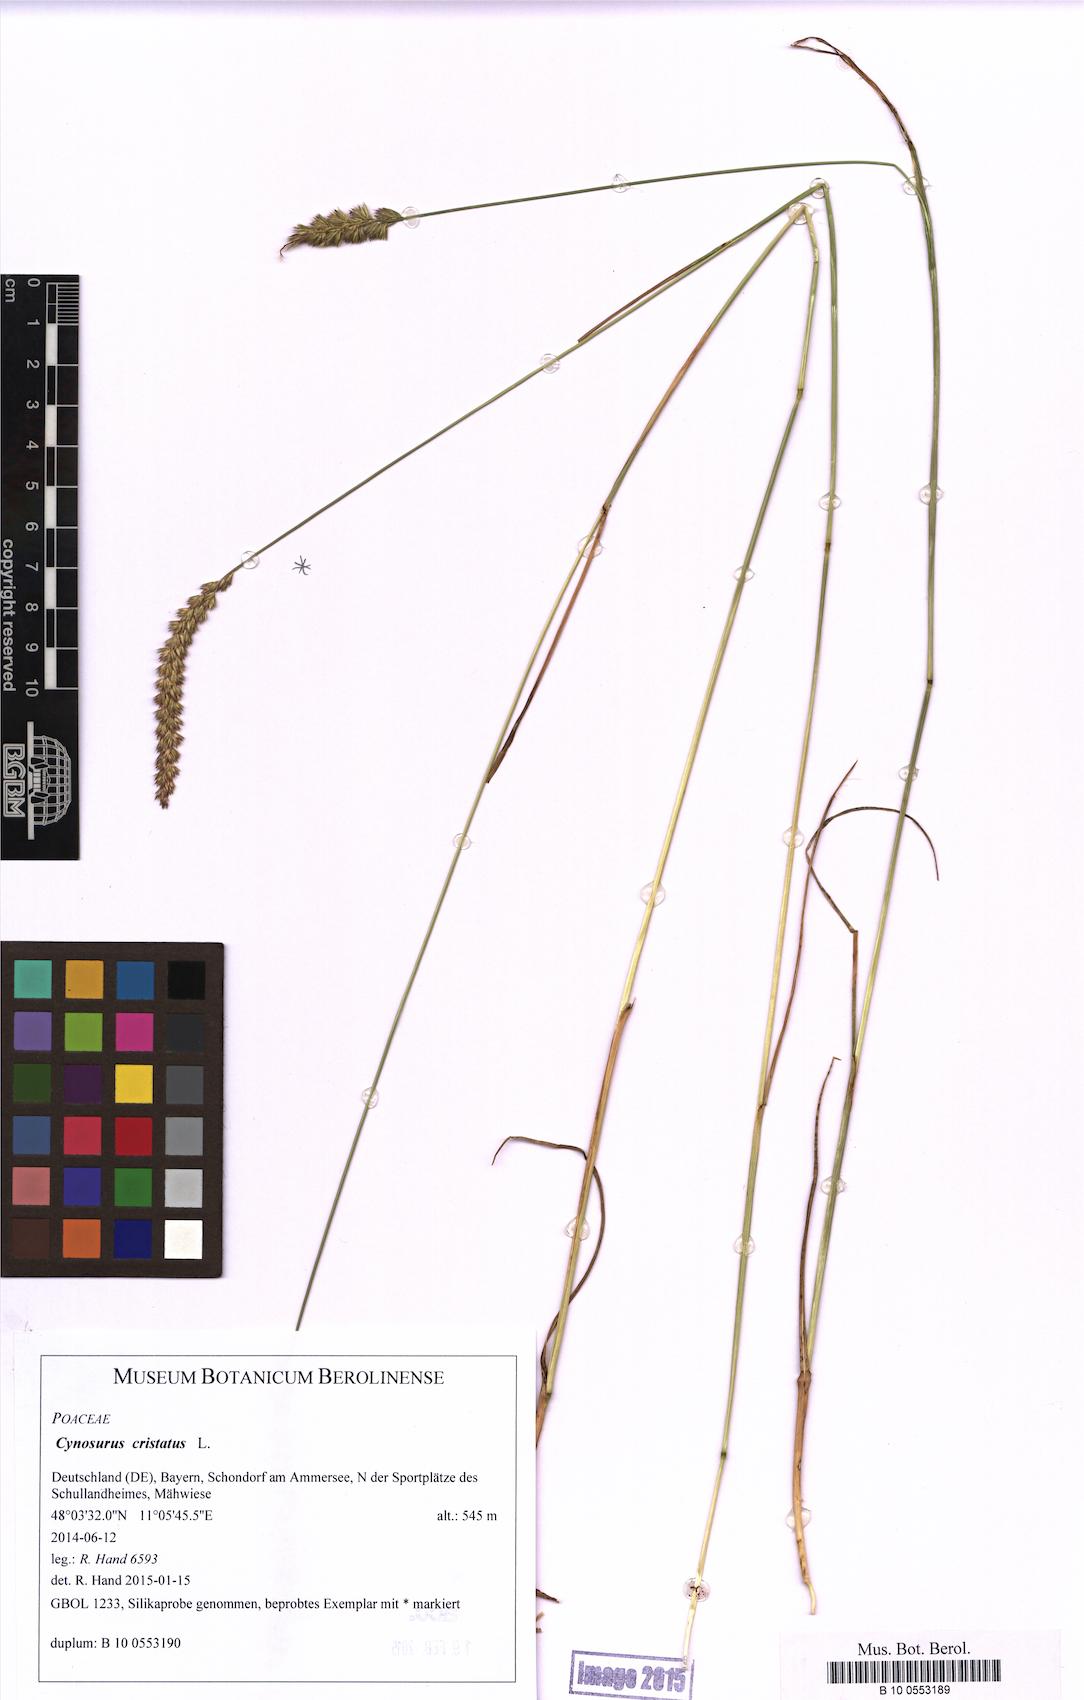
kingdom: Plantae
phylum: Tracheophyta
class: Liliopsida
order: Poales
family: Poaceae
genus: Cynosurus
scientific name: Cynosurus cristatus
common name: Crested dog's-tail
